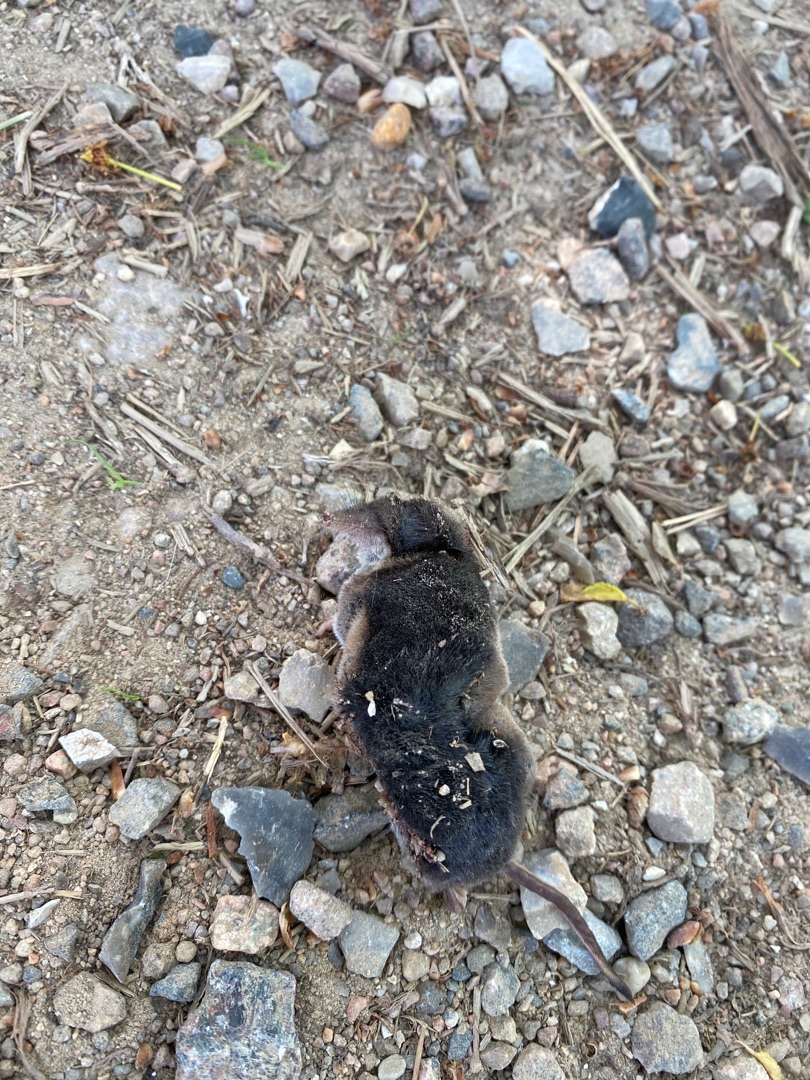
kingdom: Animalia
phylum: Chordata
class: Mammalia
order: Soricomorpha
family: Soricidae
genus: Sorex
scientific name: Sorex araneus
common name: Almindelig spidsmus
